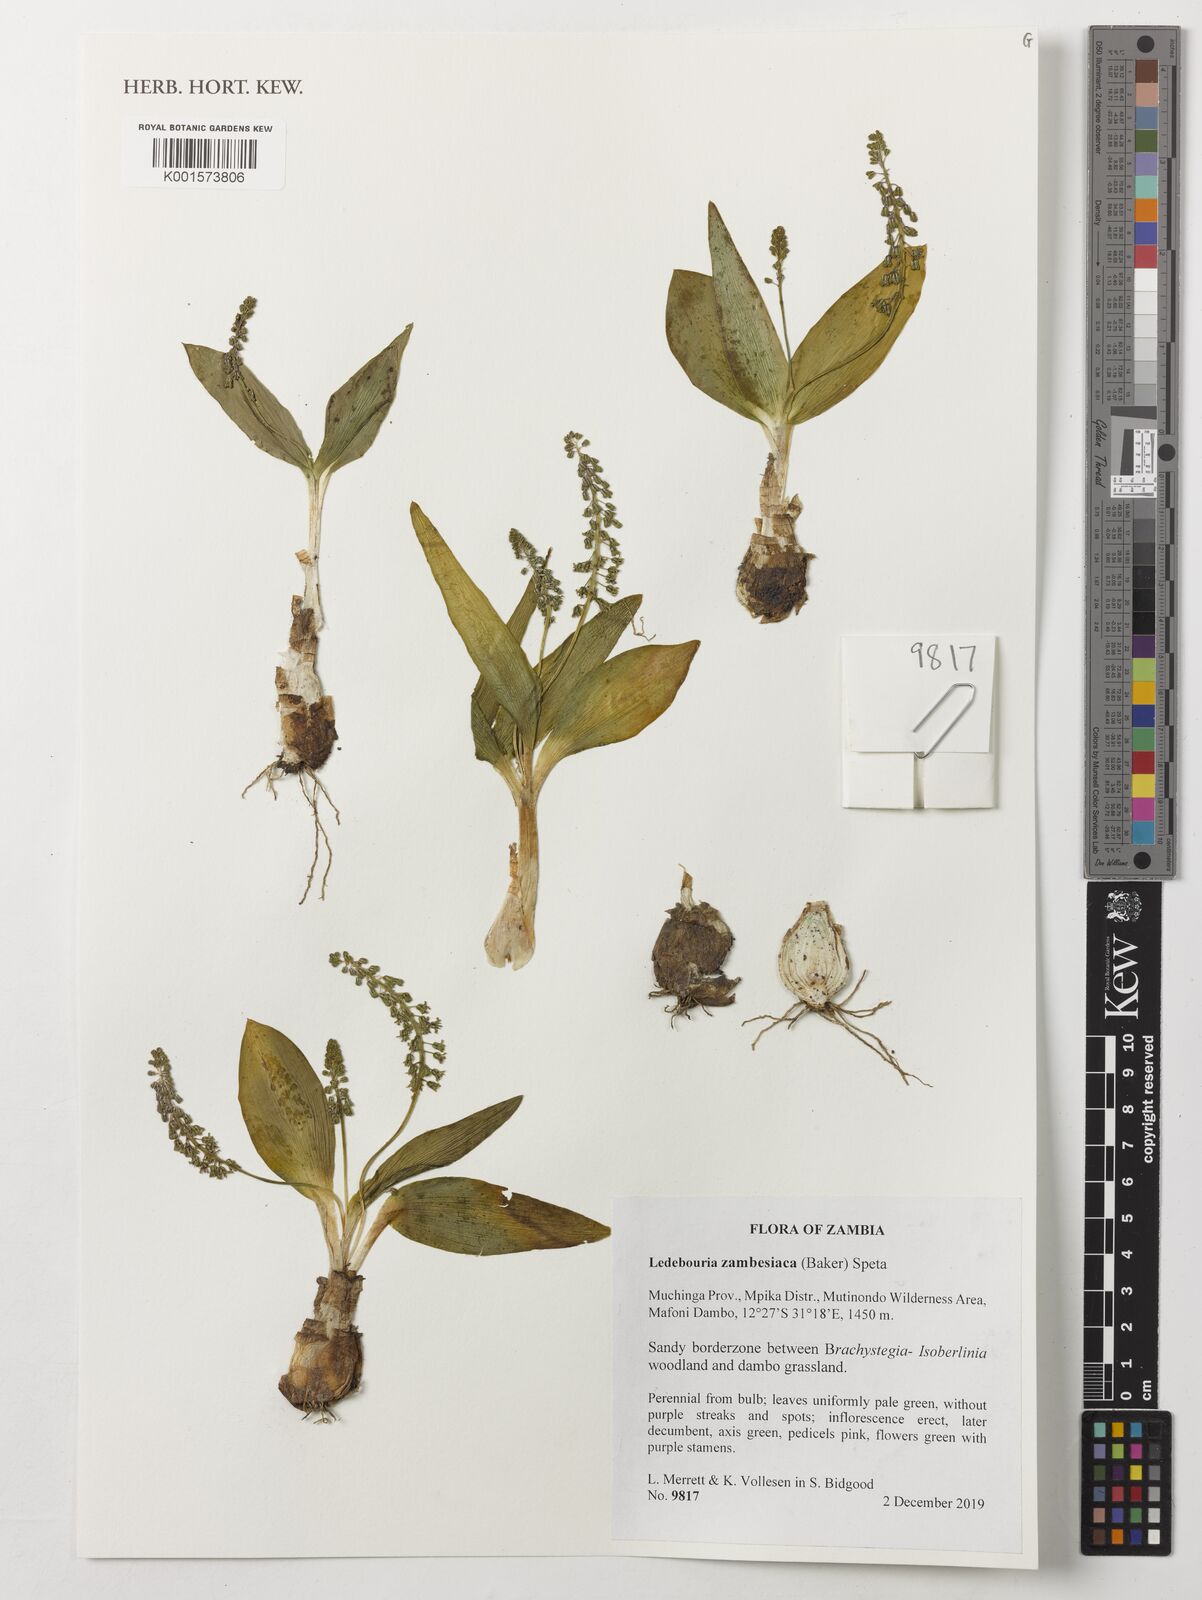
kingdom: Plantae
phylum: Tracheophyta
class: Liliopsida
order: Asparagales
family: Asparagaceae
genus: Ledebouria
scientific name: Ledebouria zambesiaca
